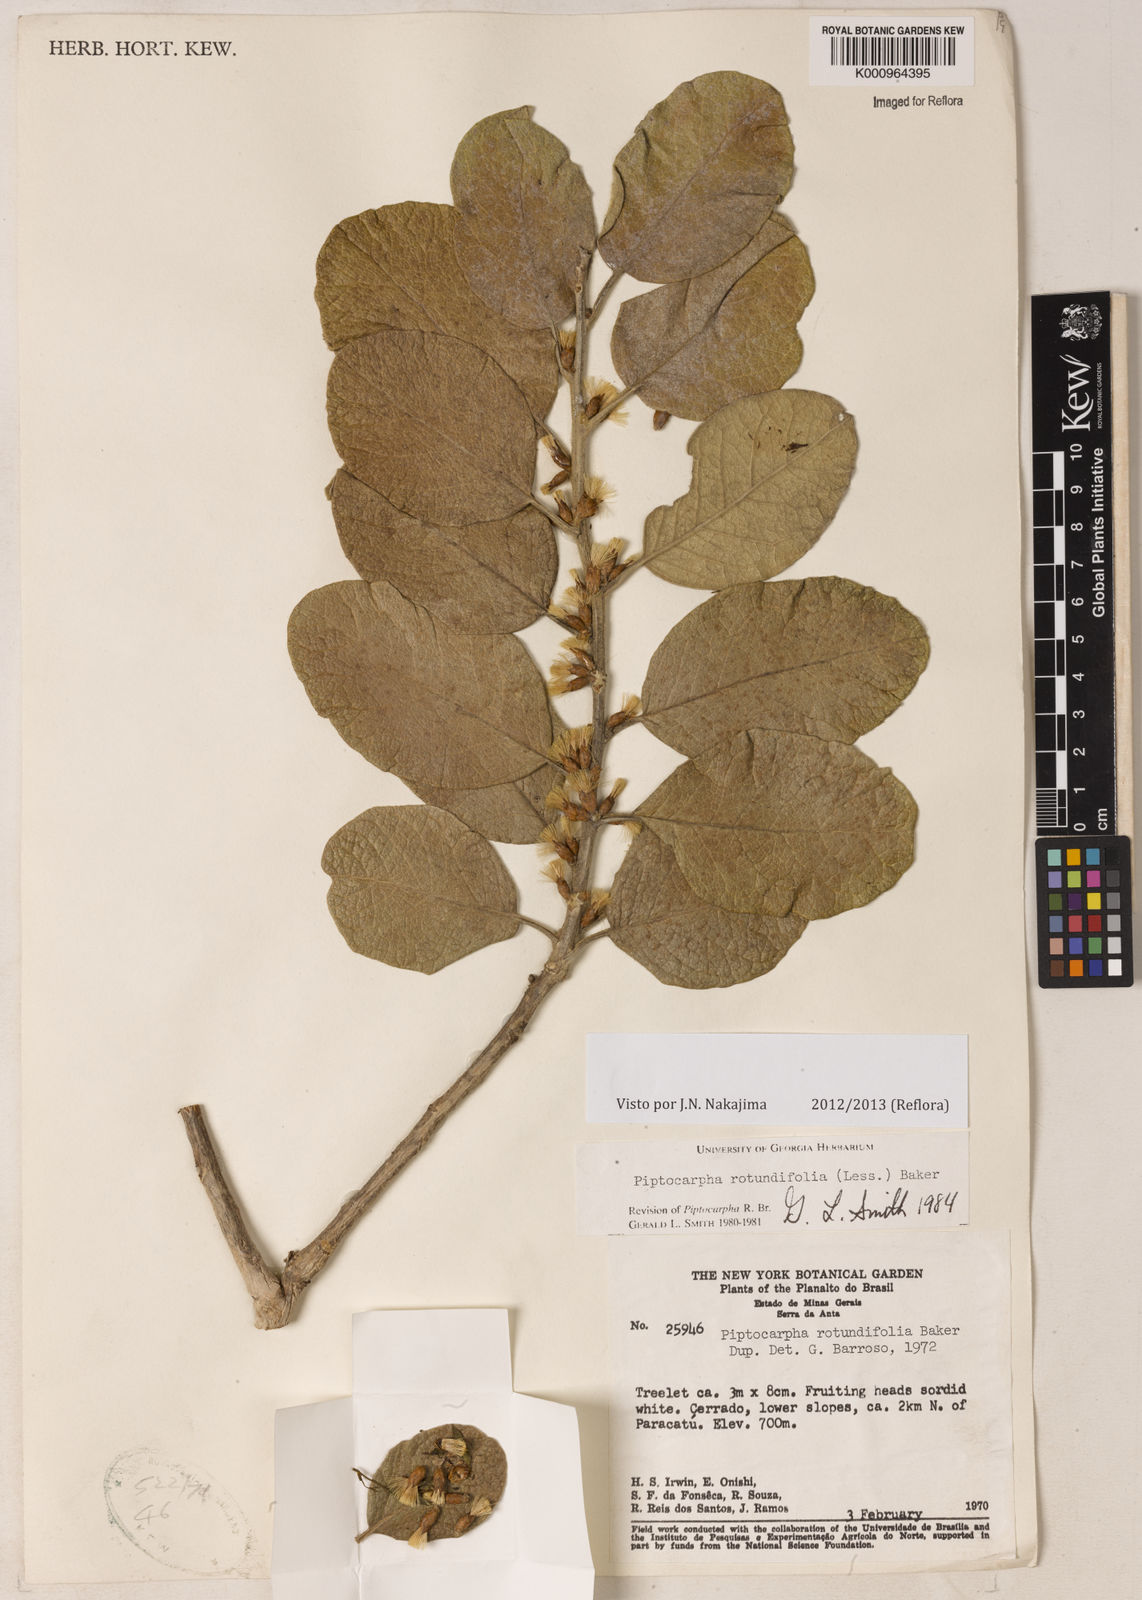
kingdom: Plantae
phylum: Tracheophyta
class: Magnoliopsida
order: Asterales
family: Asteraceae
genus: Piptocarpha
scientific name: Piptocarpha rotundifolia
